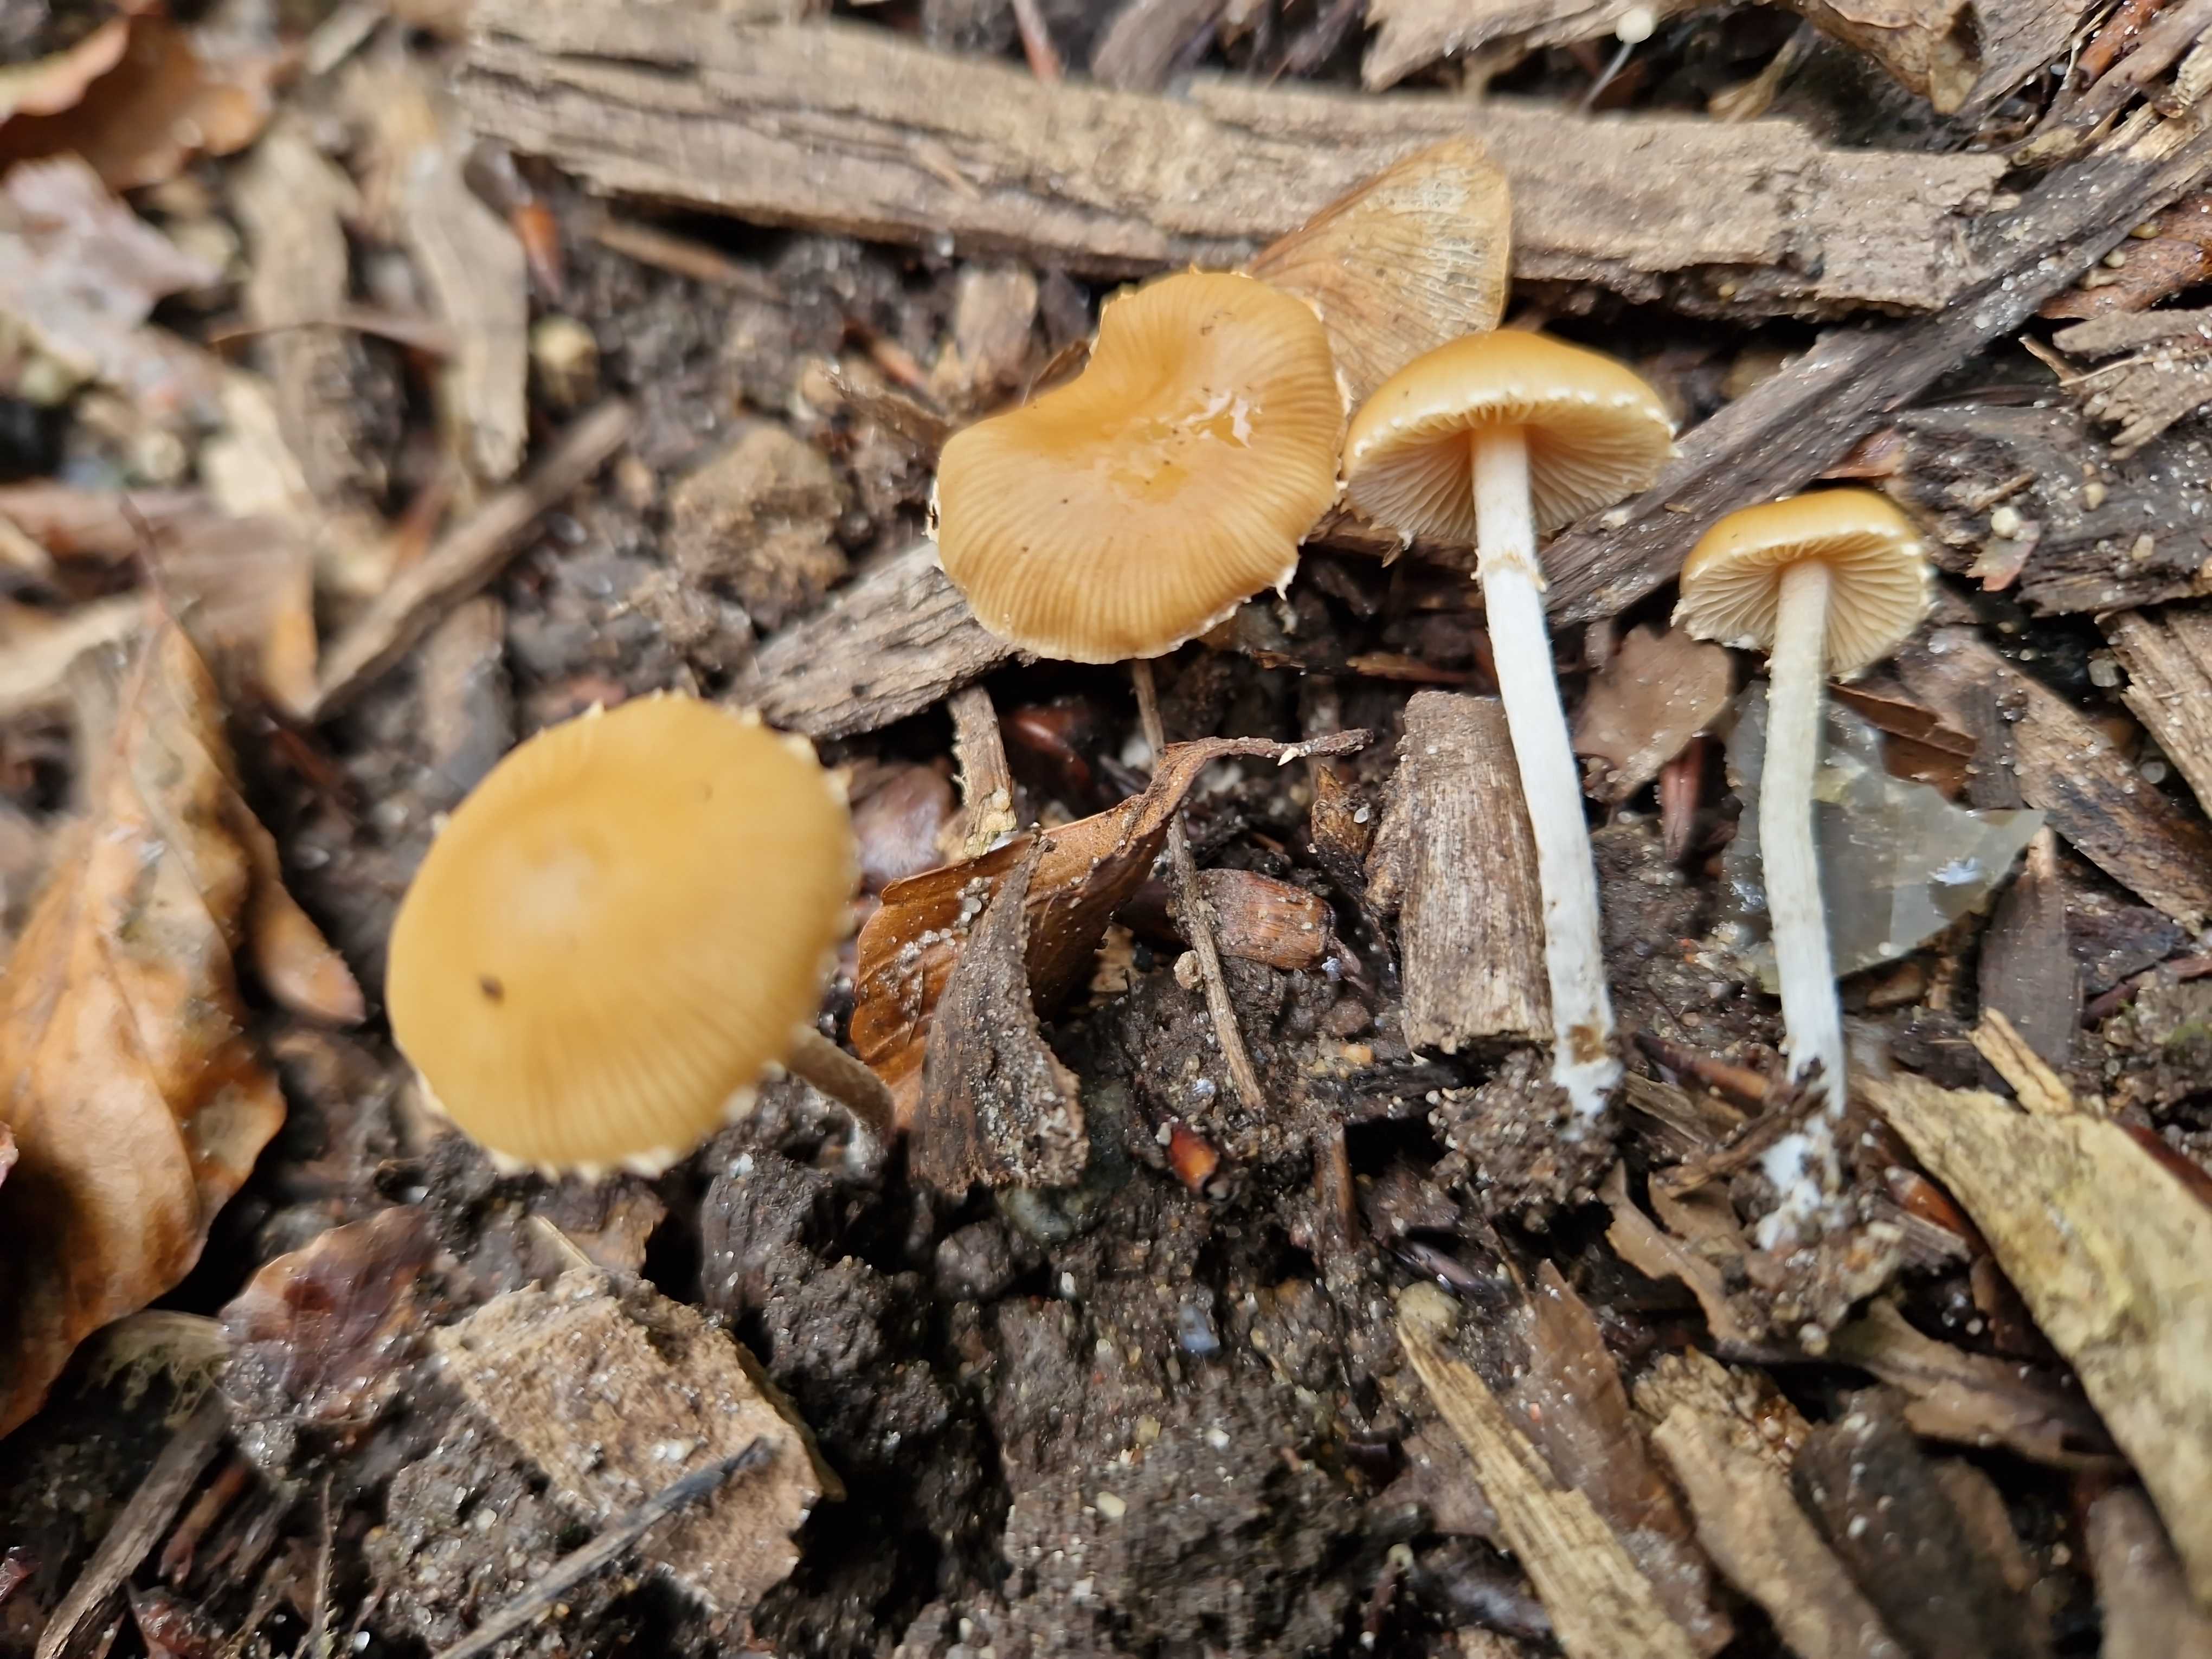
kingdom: Fungi
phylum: Basidiomycota
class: Agaricomycetes
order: Agaricales
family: Bolbitiaceae
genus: Pholiotina
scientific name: Pholiotina
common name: dansehat
